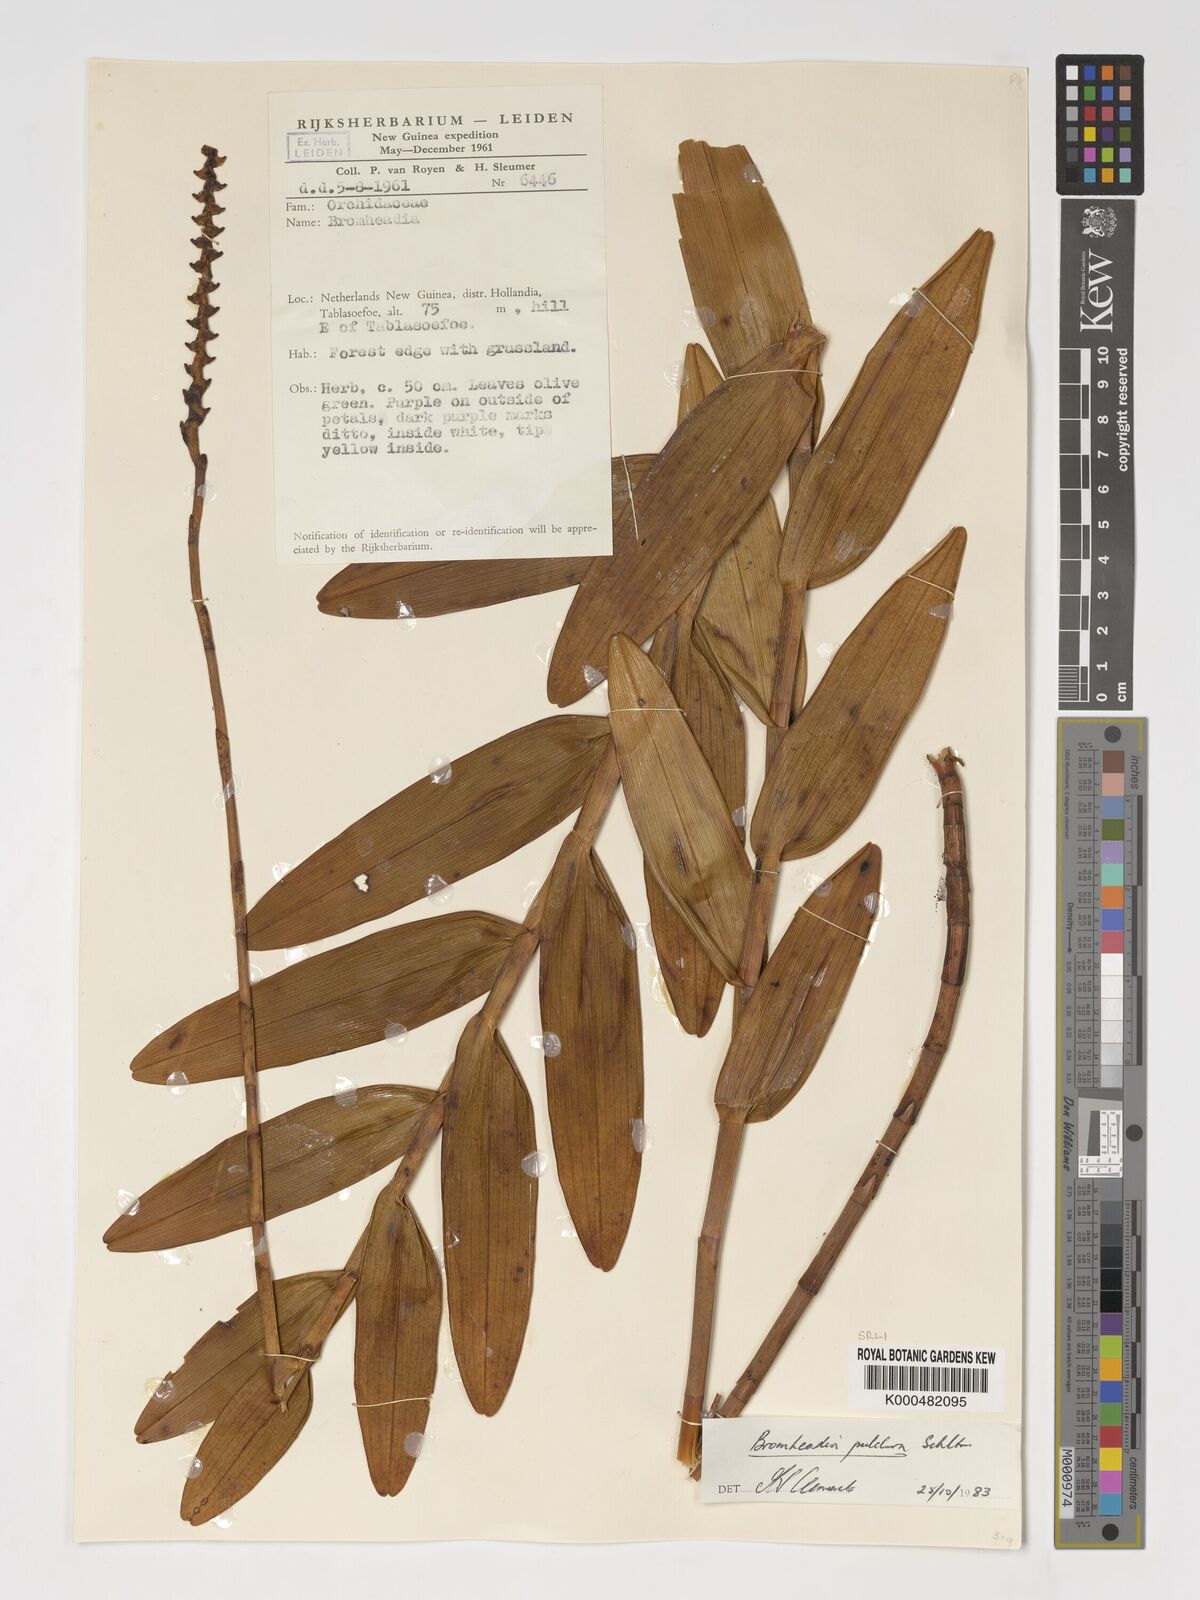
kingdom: Plantae
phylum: Tracheophyta
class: Liliopsida
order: Asparagales
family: Orchidaceae
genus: Bromheadia
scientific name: Bromheadia finlaysoniana
